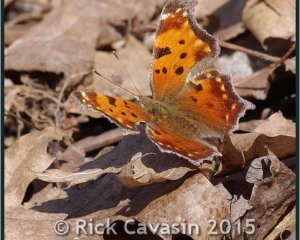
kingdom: Animalia
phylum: Arthropoda
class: Insecta
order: Lepidoptera
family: Nymphalidae
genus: Polygonia
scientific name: Polygonia comma
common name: Eastern Comma
